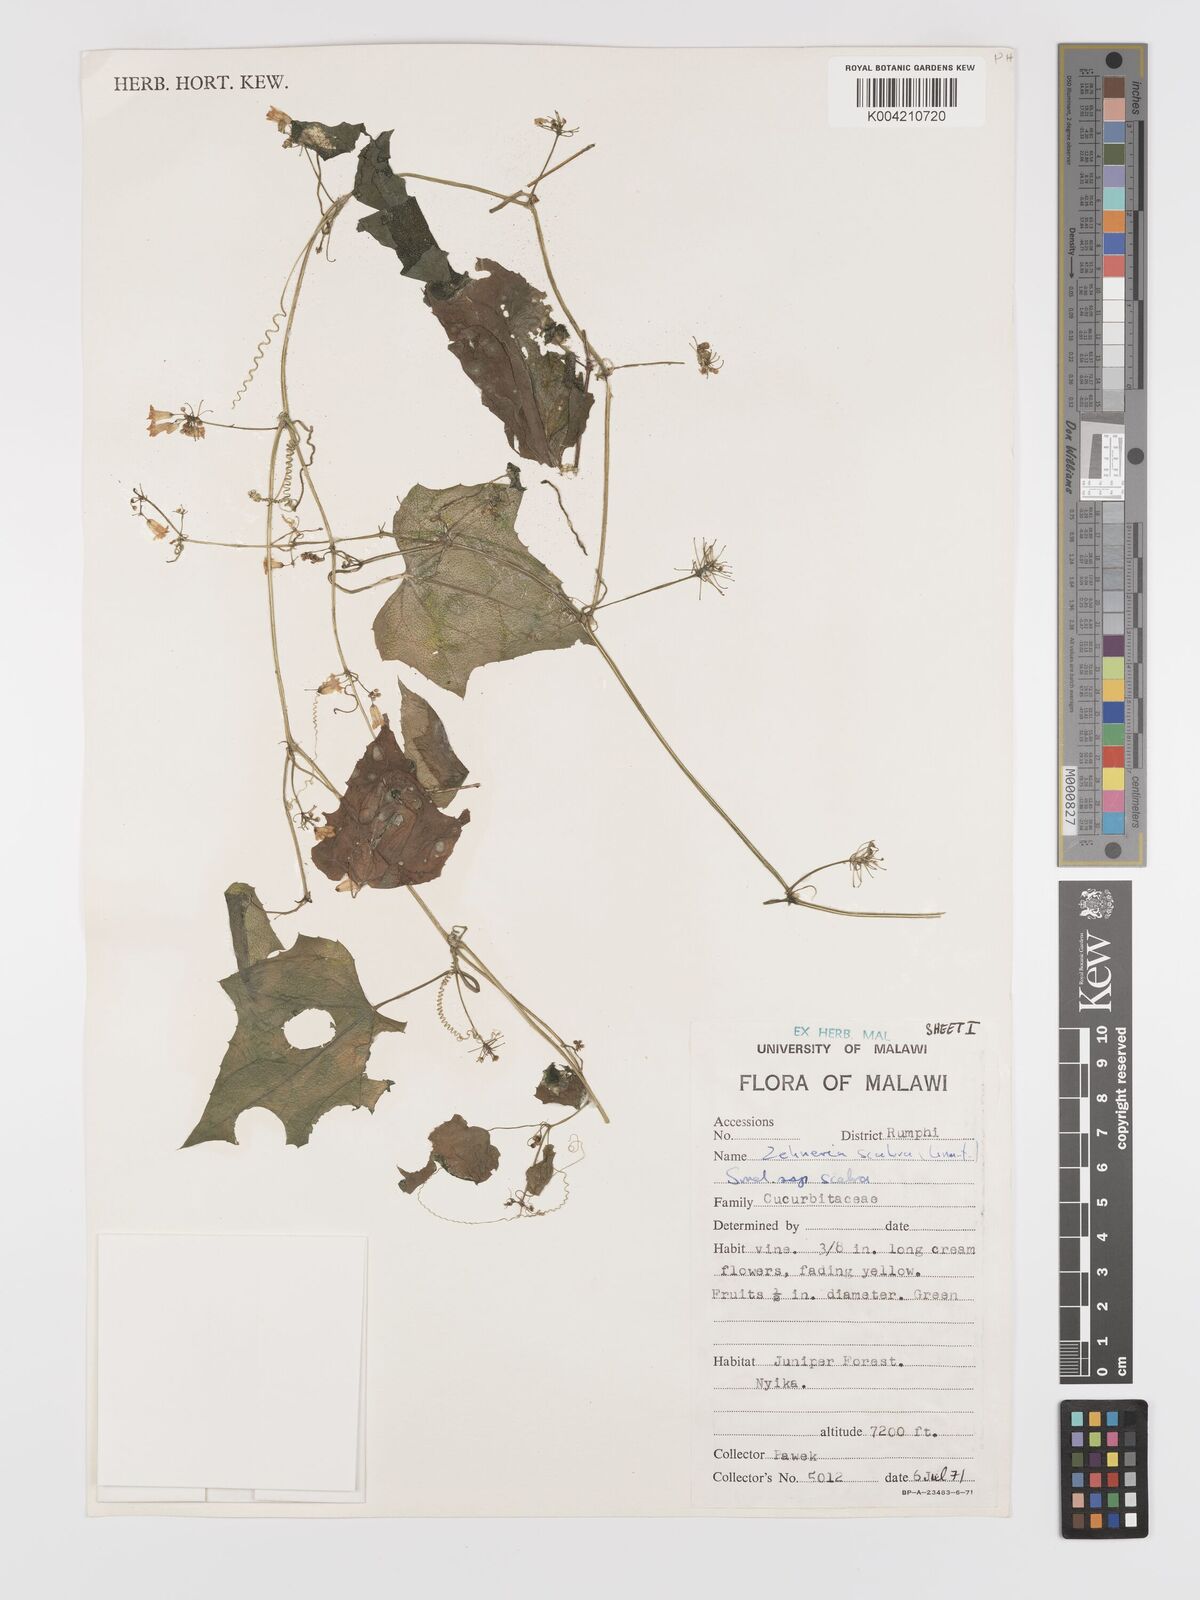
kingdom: Plantae
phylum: Tracheophyta
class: Magnoliopsida
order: Cucurbitales
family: Cucurbitaceae
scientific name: Cucurbitaceae
